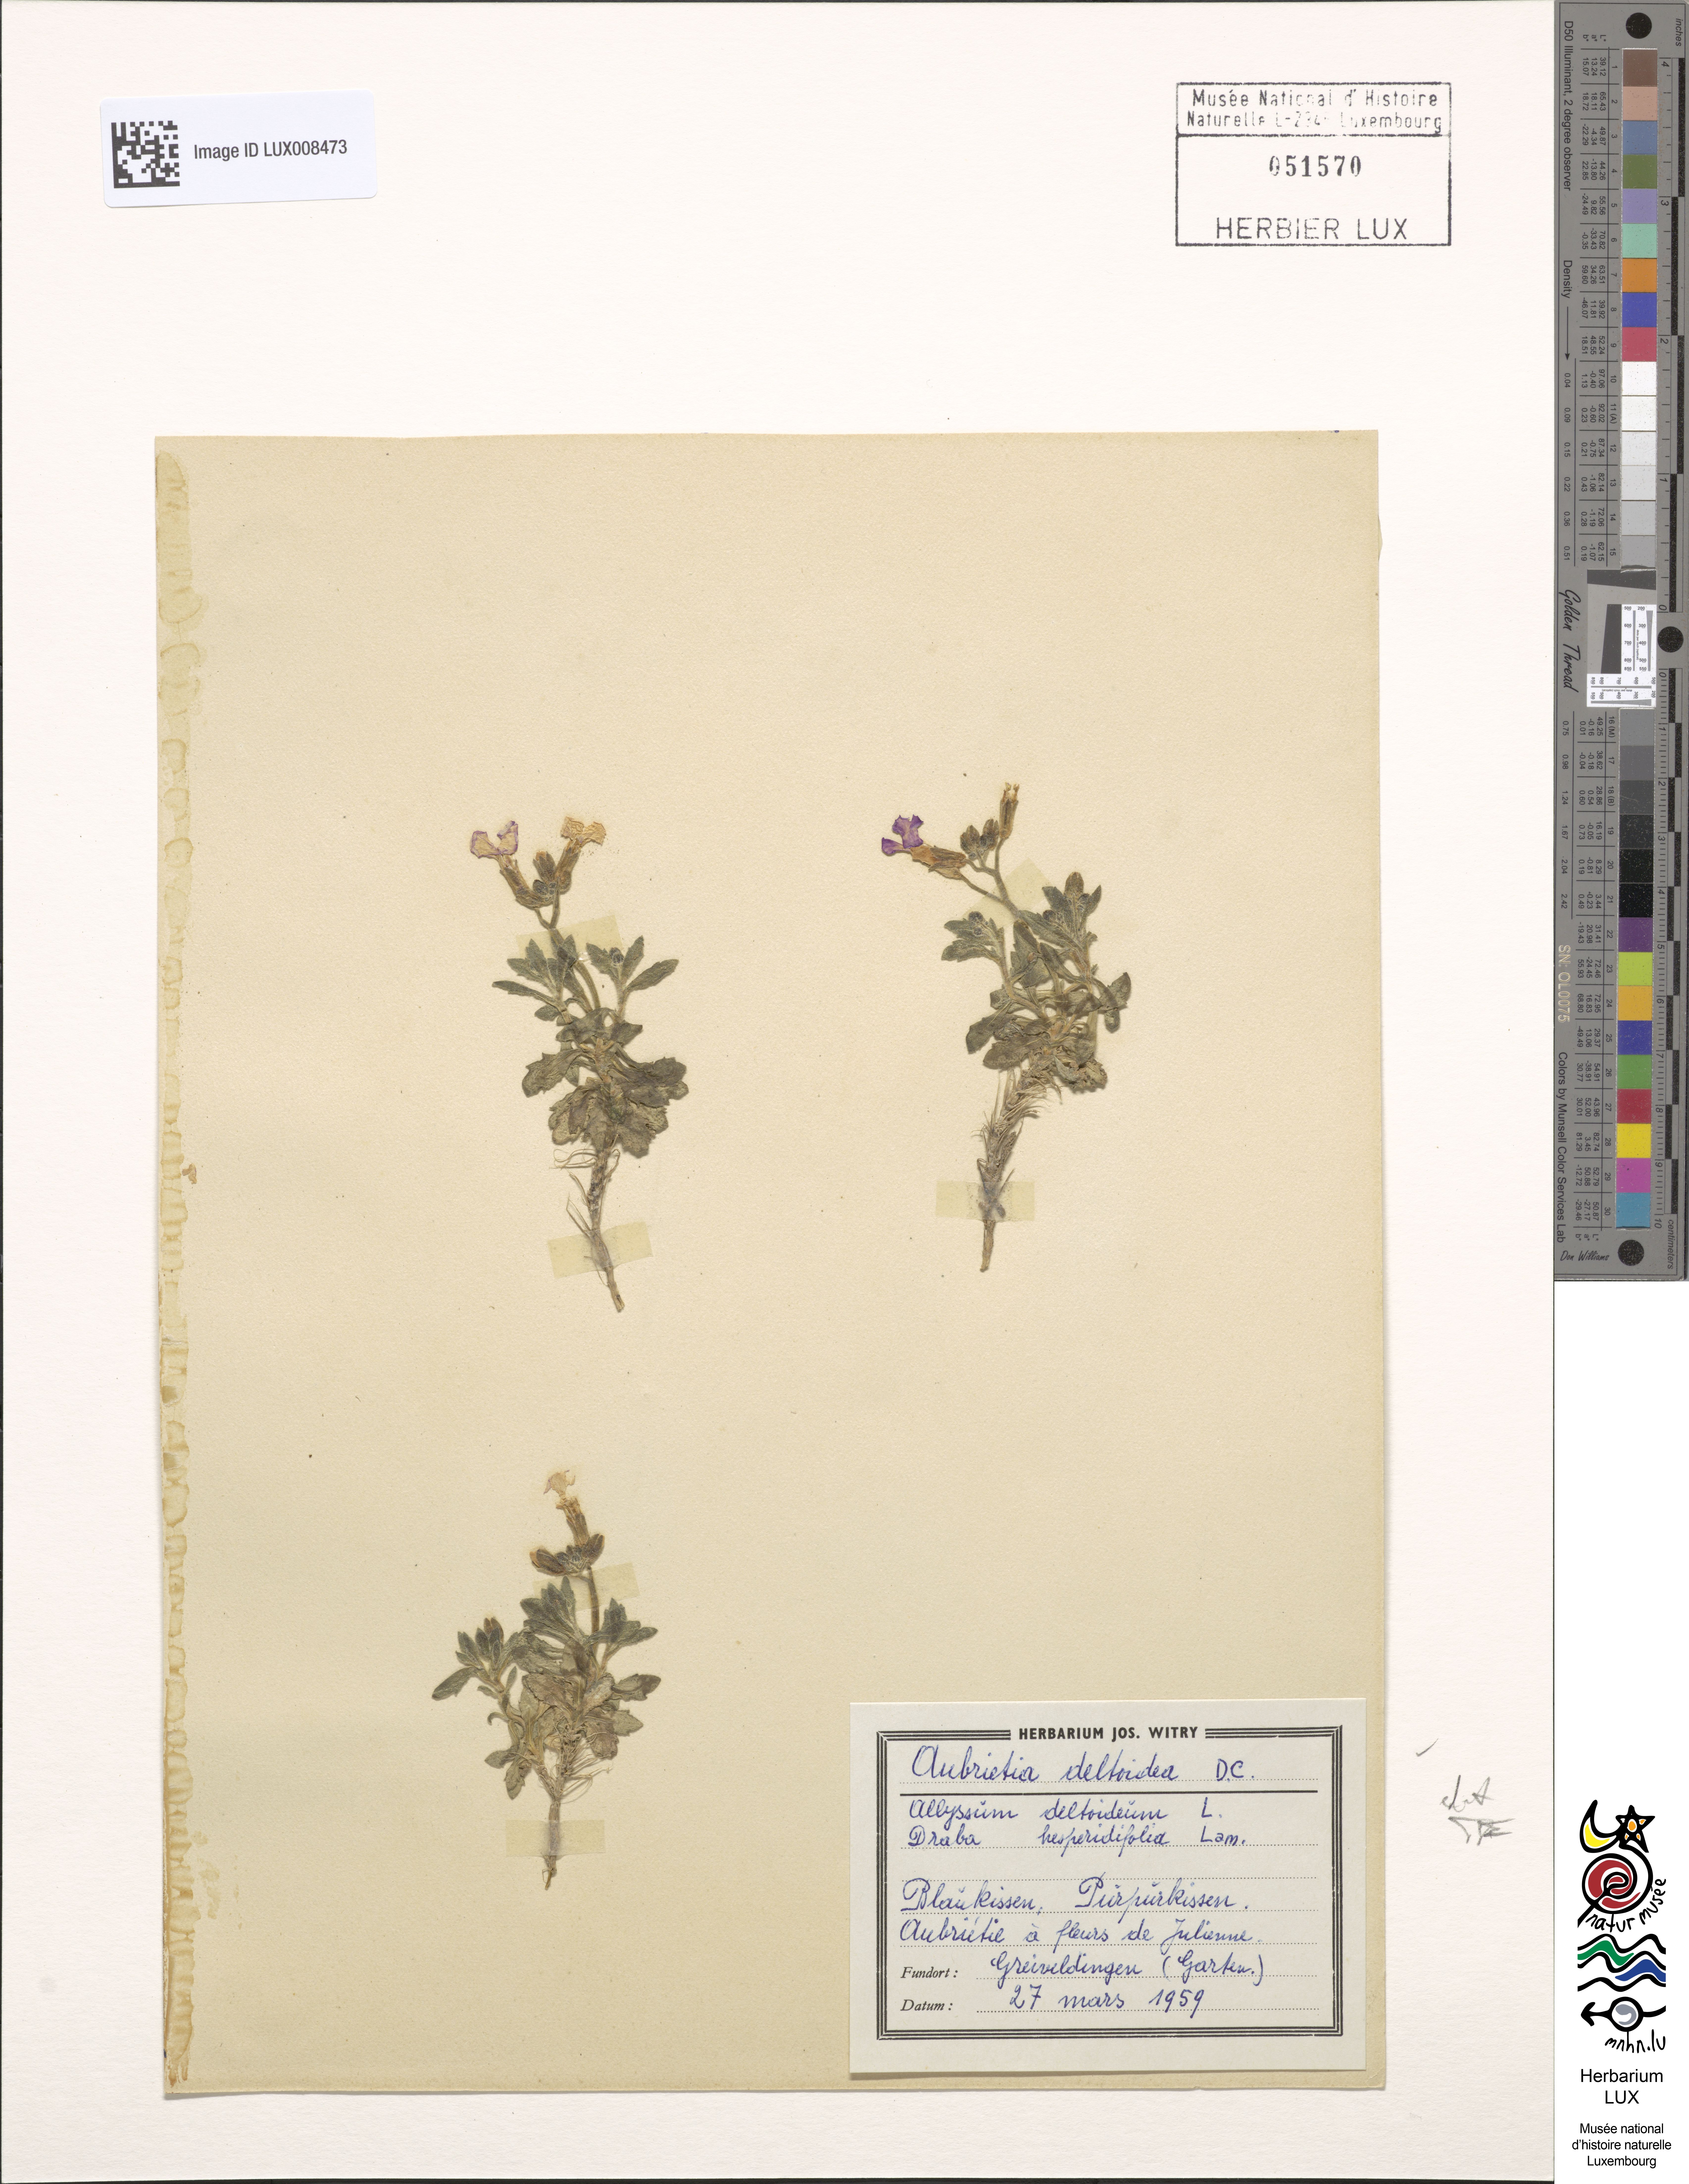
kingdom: Plantae
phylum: Tracheophyta
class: Magnoliopsida
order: Brassicales
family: Brassicaceae
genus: Aubrieta
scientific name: Aubrieta deltoidea
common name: Aubretia
